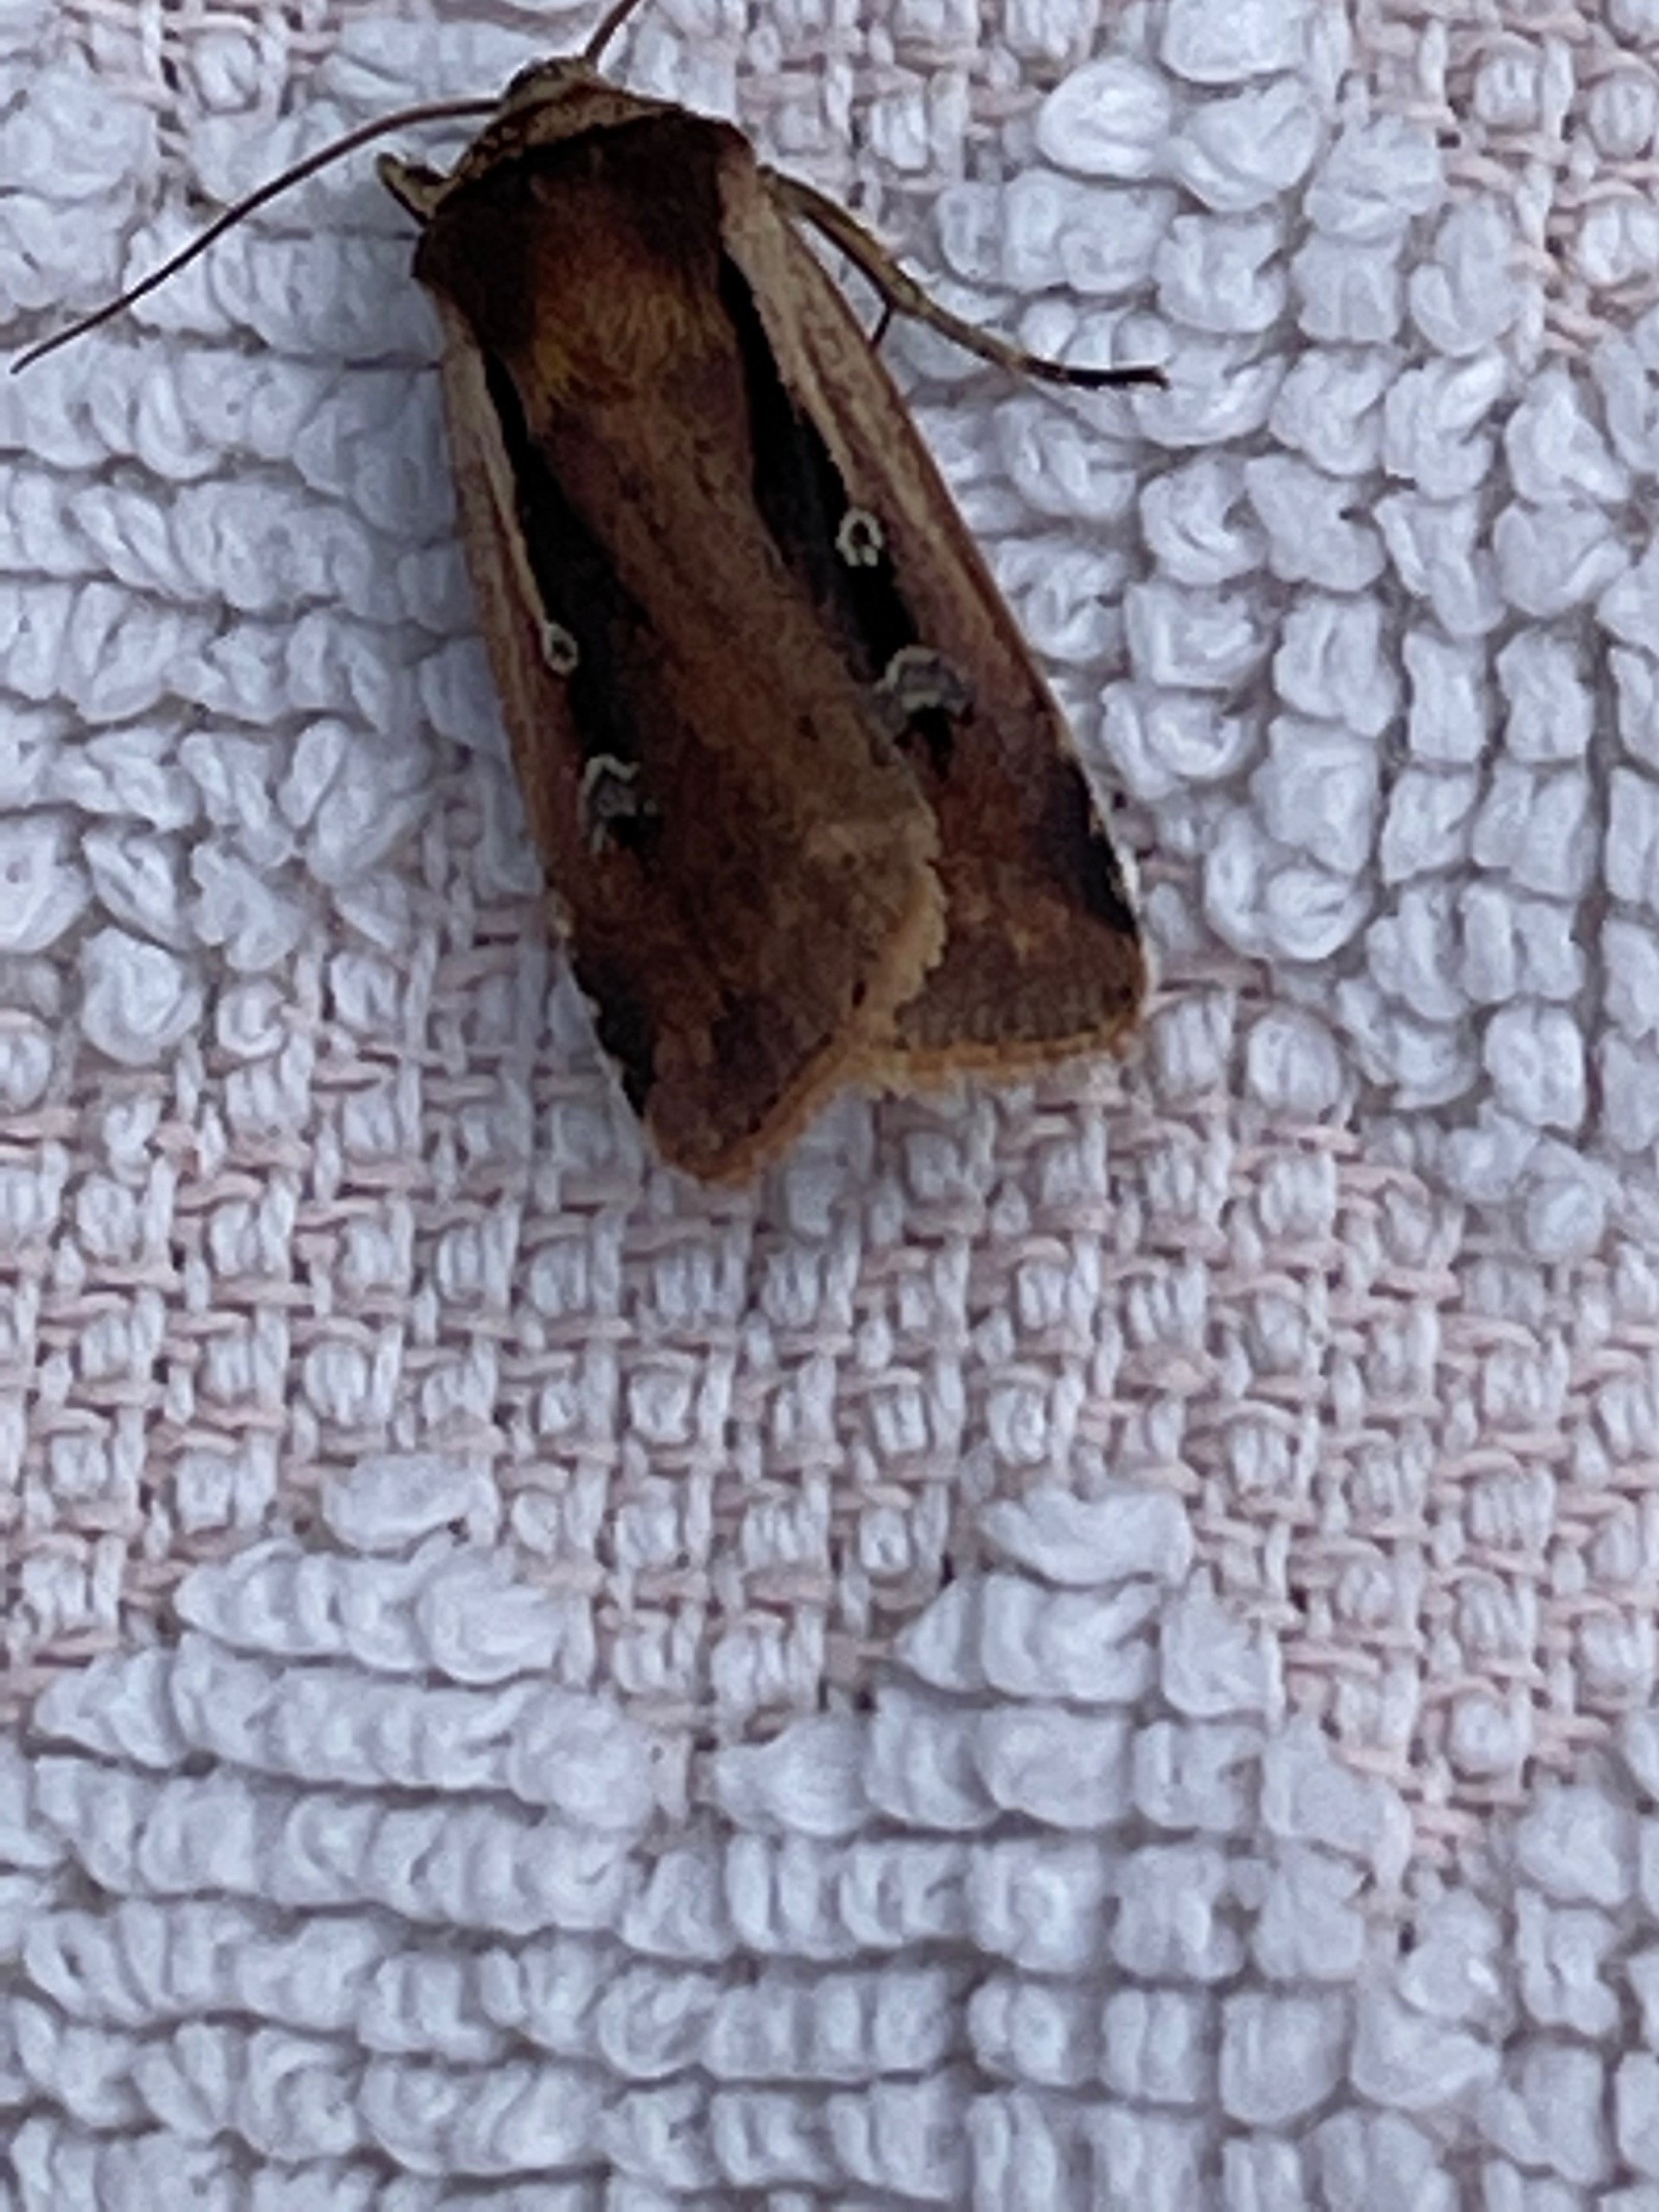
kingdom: Animalia
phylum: Arthropoda
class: Insecta
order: Lepidoptera
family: Noctuidae
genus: Ochropleura
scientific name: Ochropleura plecta
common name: Hvidrandet jordugle
